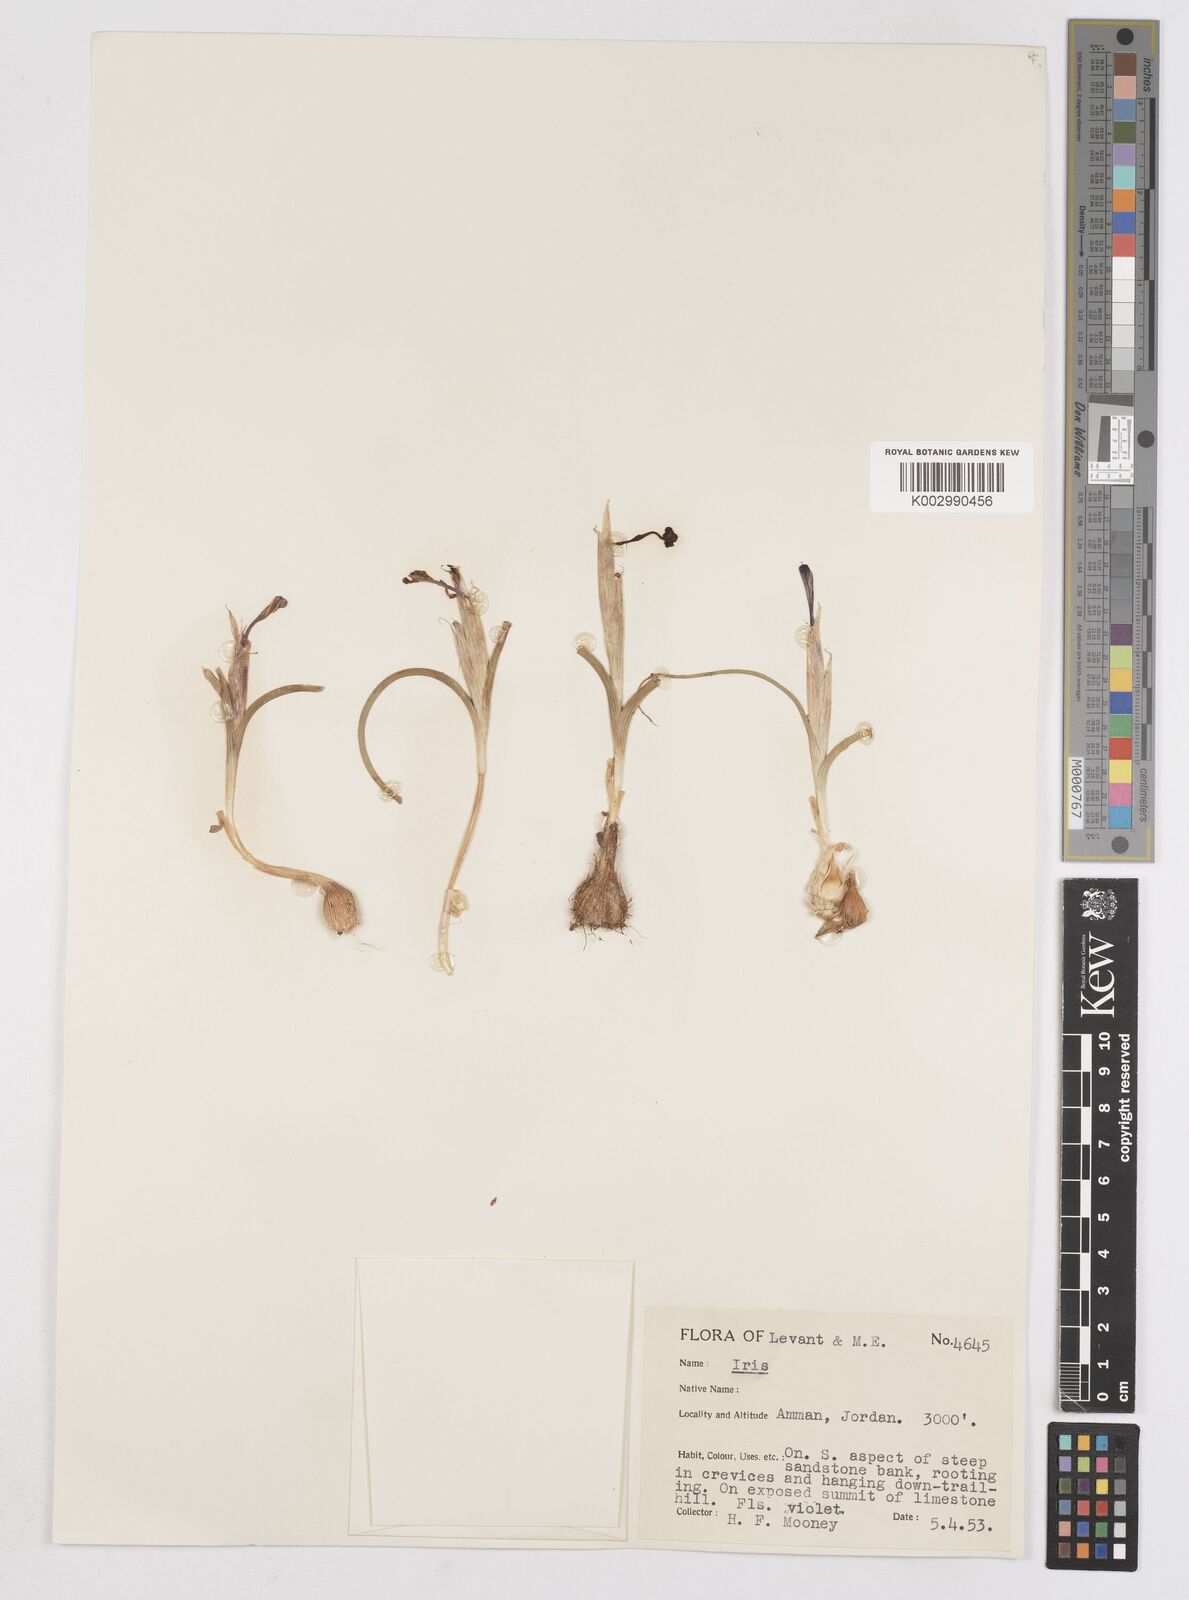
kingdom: Plantae
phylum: Tracheophyta
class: Liliopsida
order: Asparagales
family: Iridaceae
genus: Moraea
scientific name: Moraea sisyrinchium
